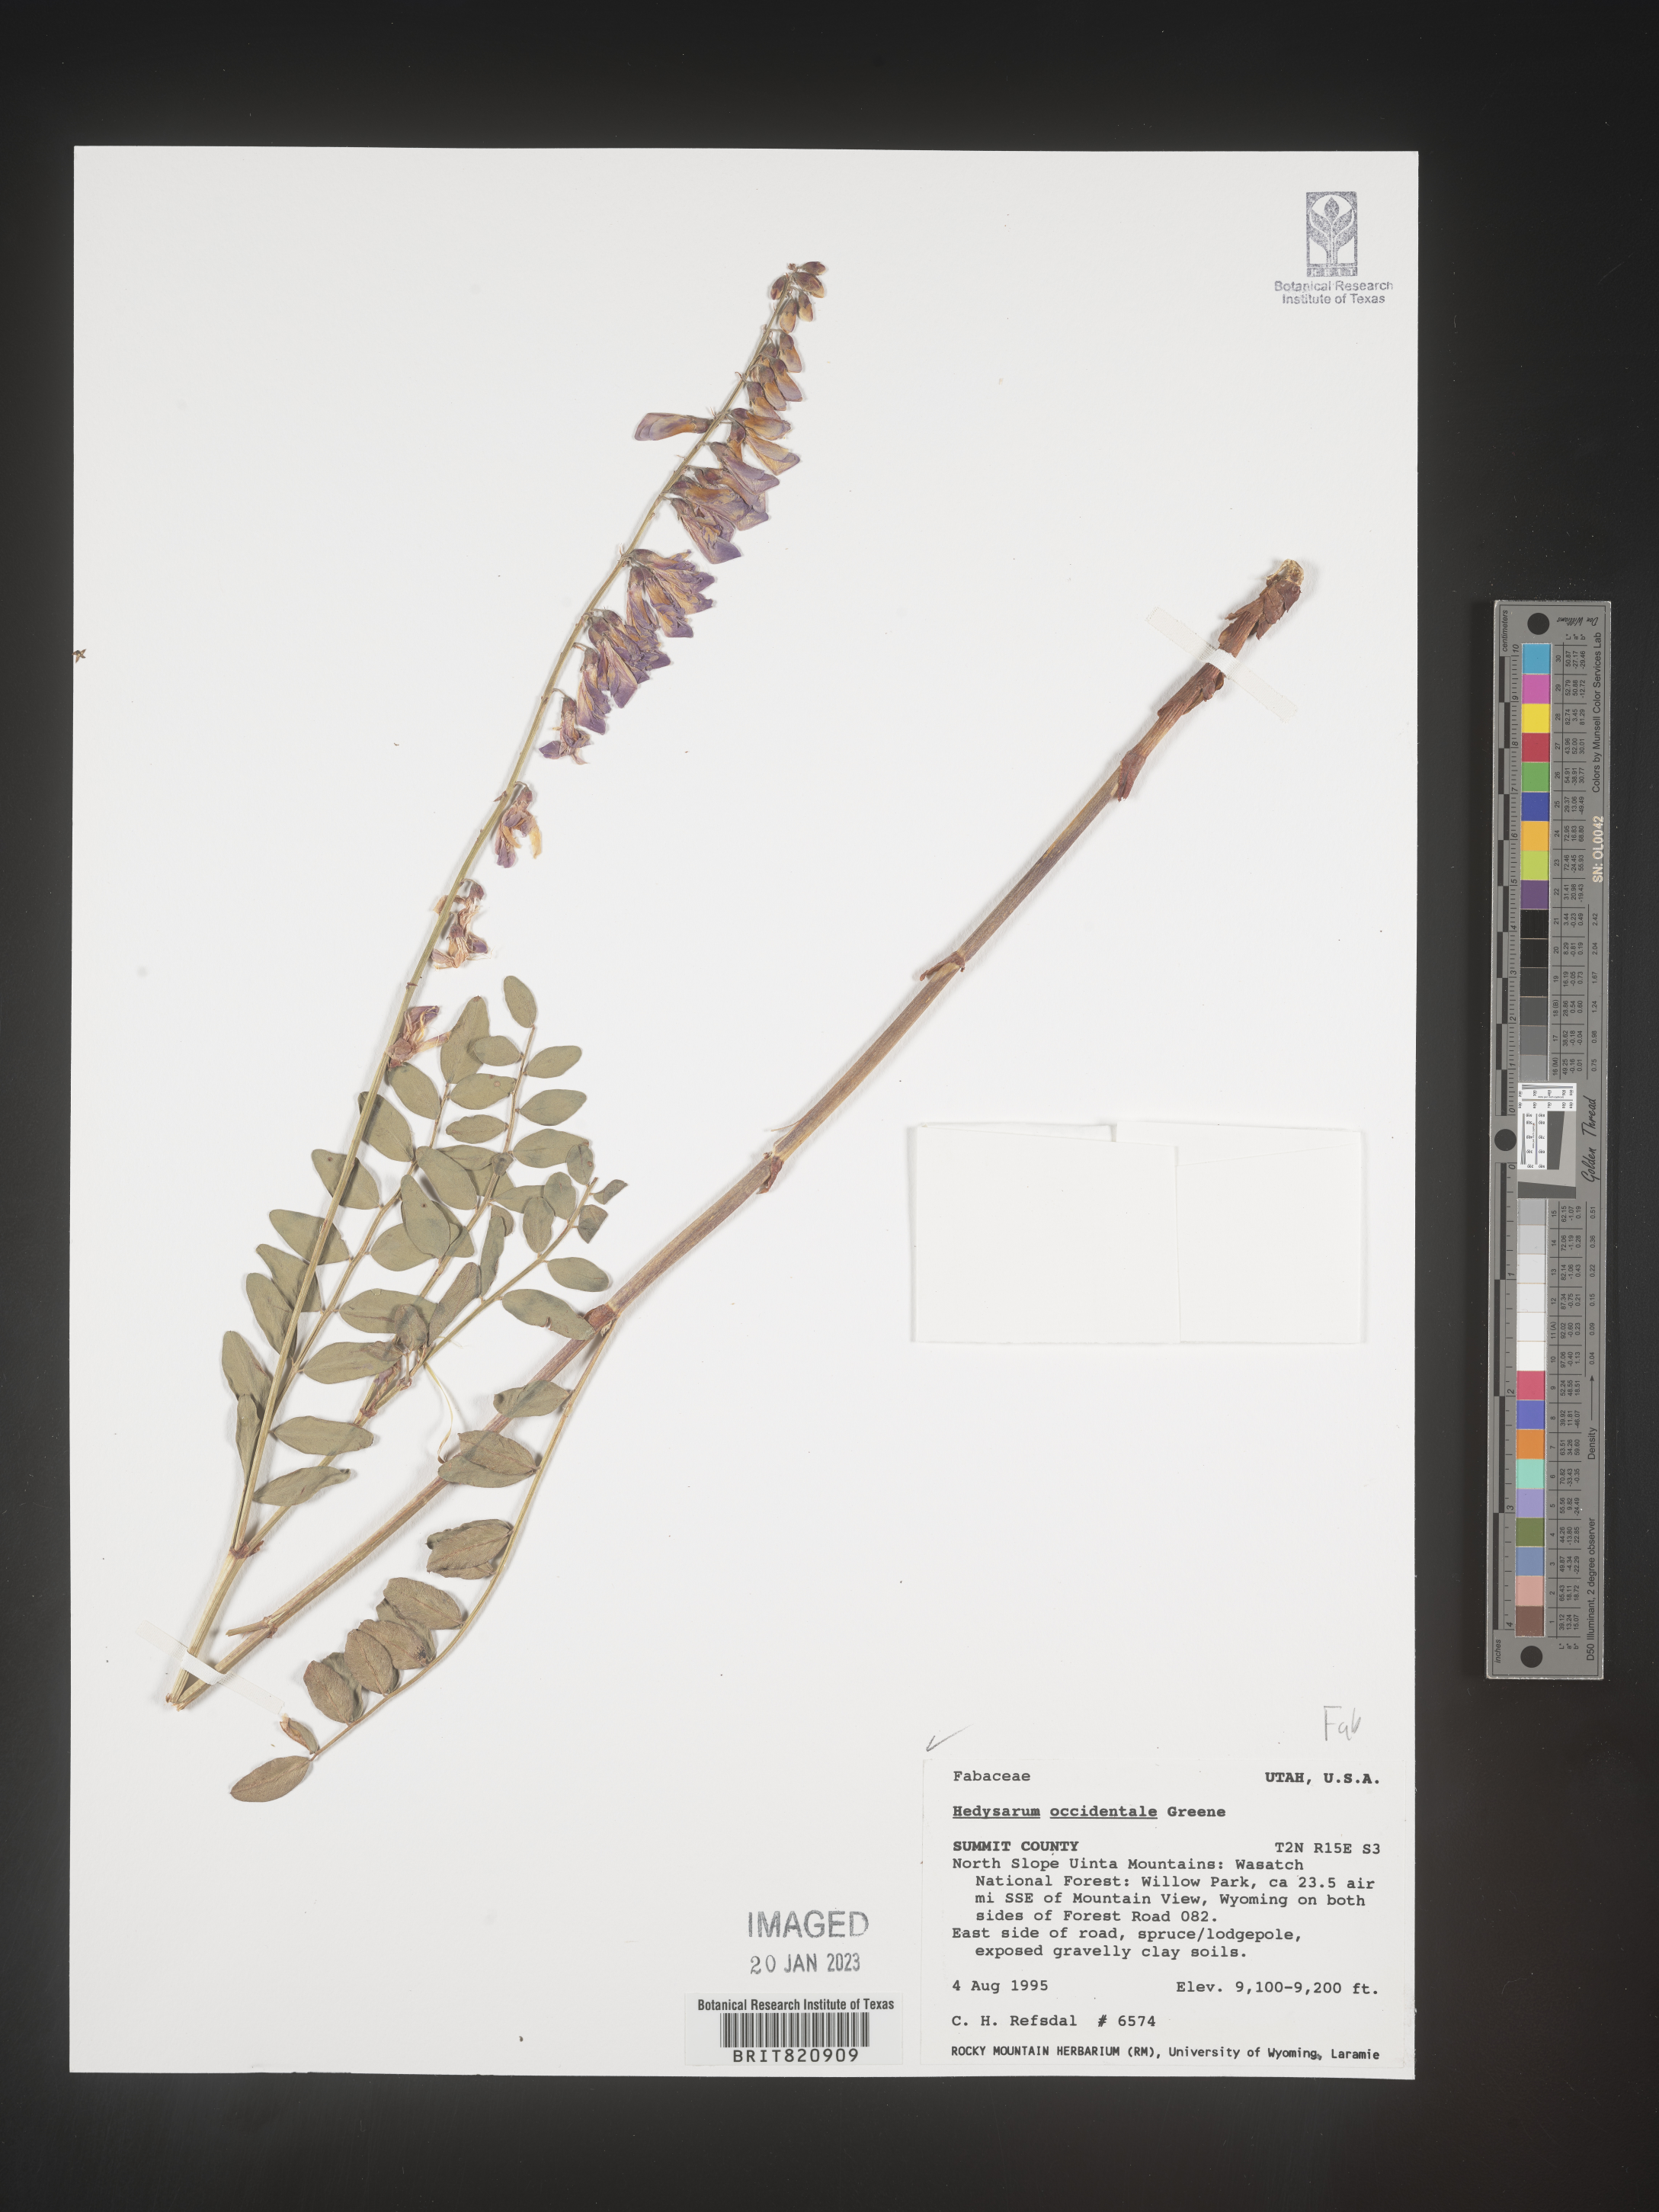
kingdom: Plantae
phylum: Tracheophyta
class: Magnoliopsida
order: Fabales
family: Fabaceae
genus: Hedysarum
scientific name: Hedysarum occidentale
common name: Western hedysarum
